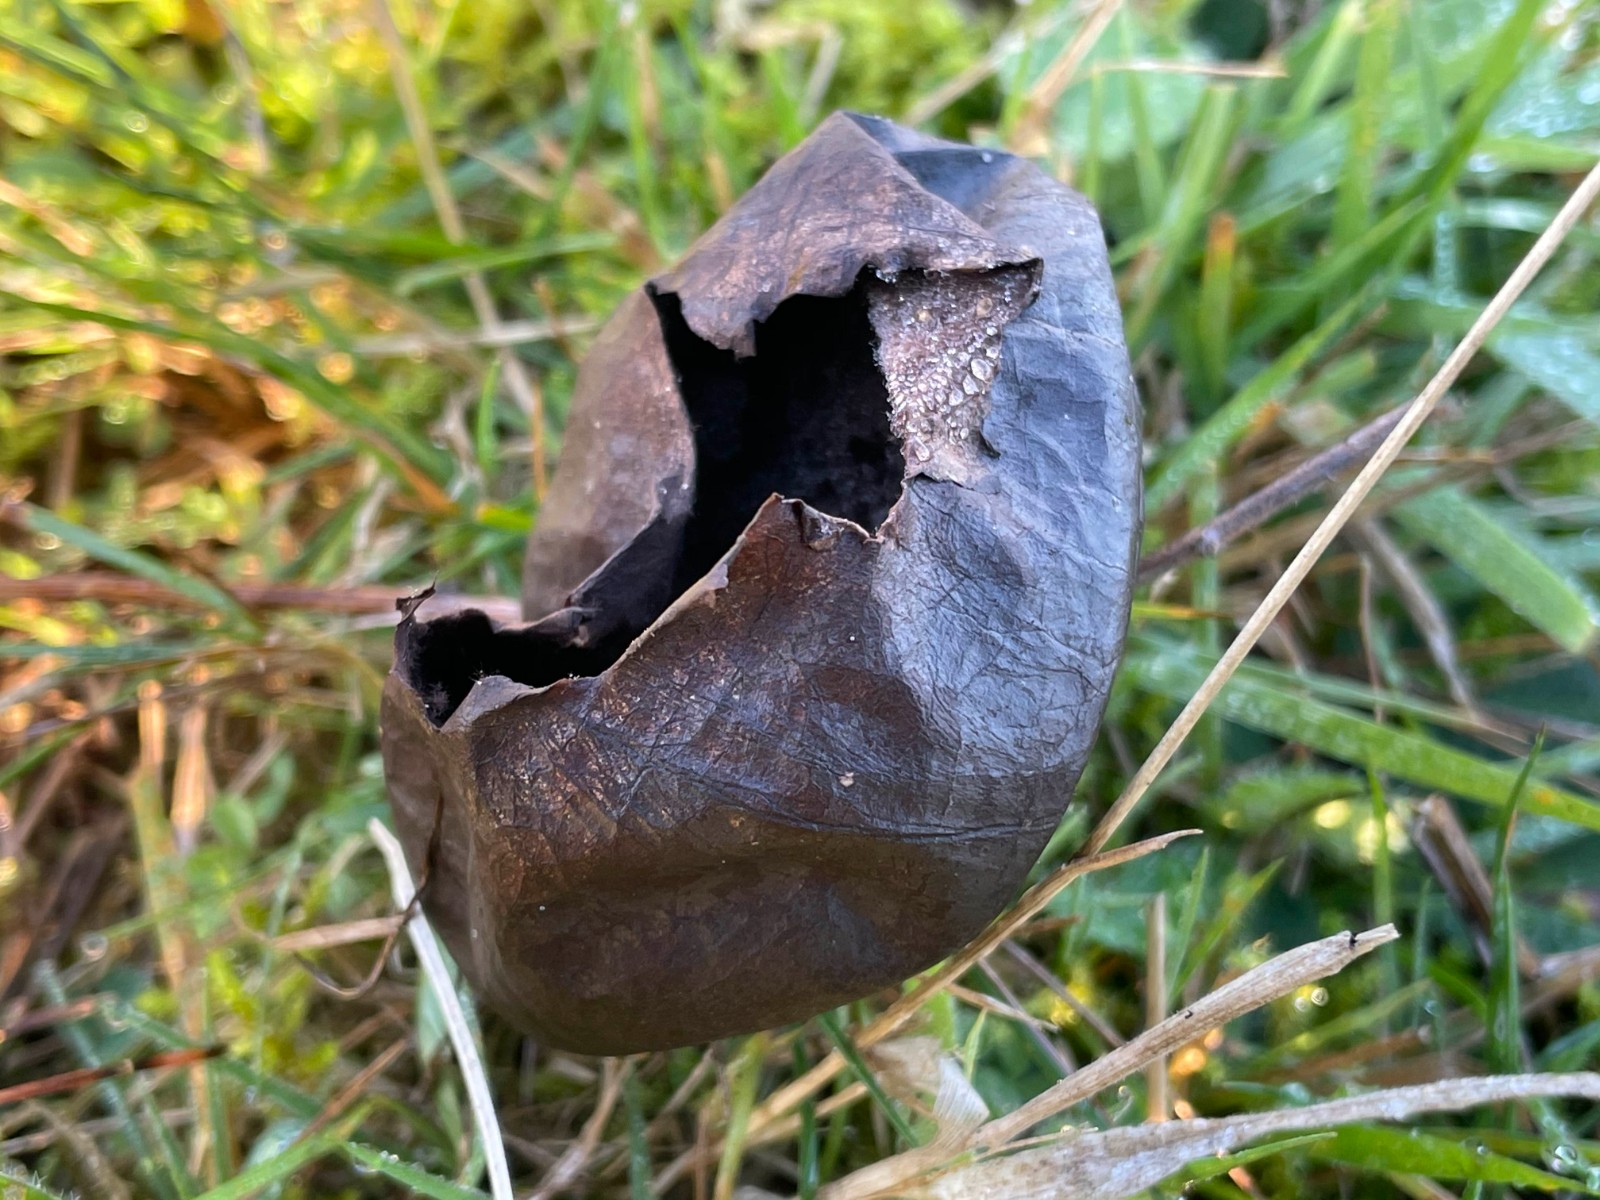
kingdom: Fungi
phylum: Basidiomycota
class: Agaricomycetes
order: Agaricales
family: Lycoperdaceae
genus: Bovista
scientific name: Bovista nigrescens
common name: sortagtig bovist
